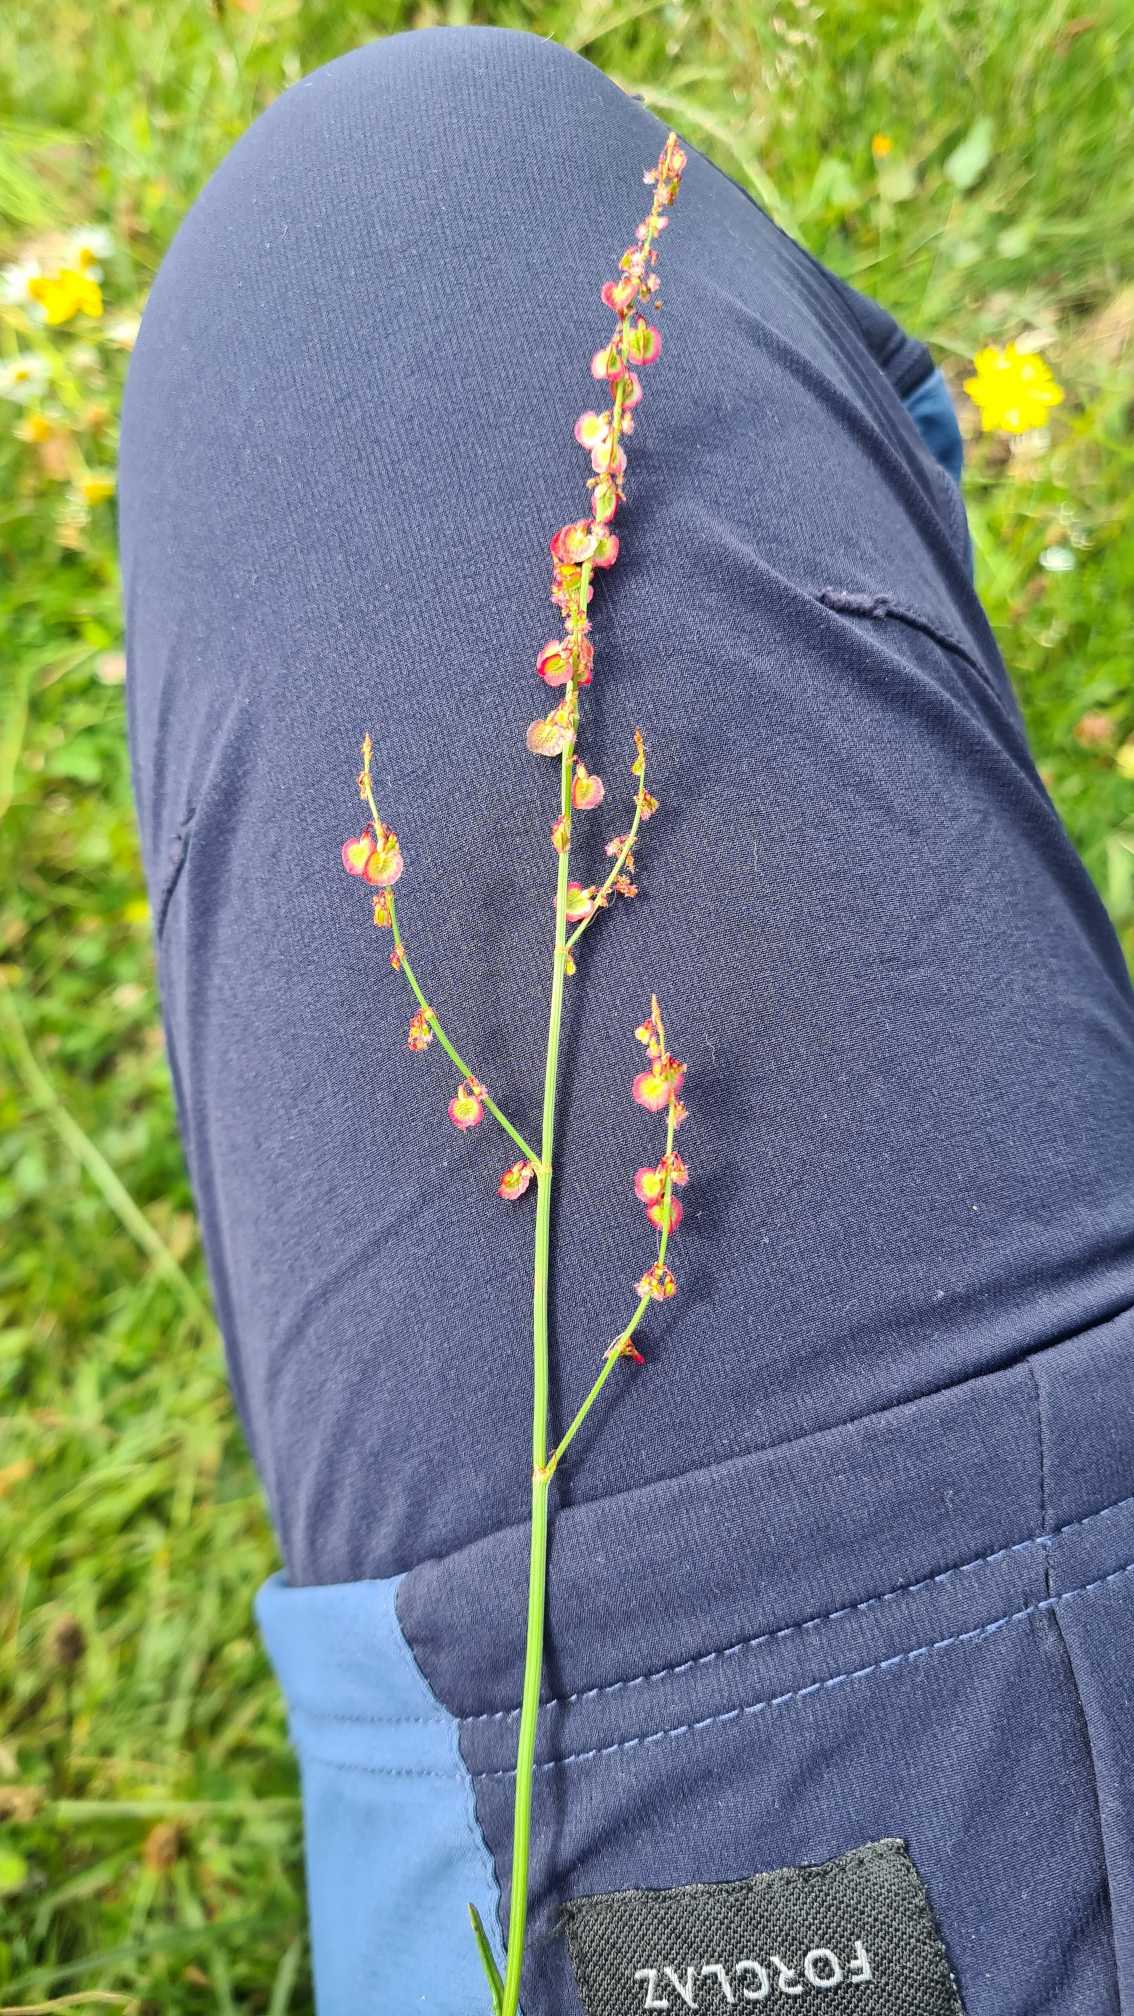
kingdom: Plantae
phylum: Tracheophyta
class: Magnoliopsida
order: Caryophyllales
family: Polygonaceae
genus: Rumex
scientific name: Rumex acetosella
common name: Rødknæ
